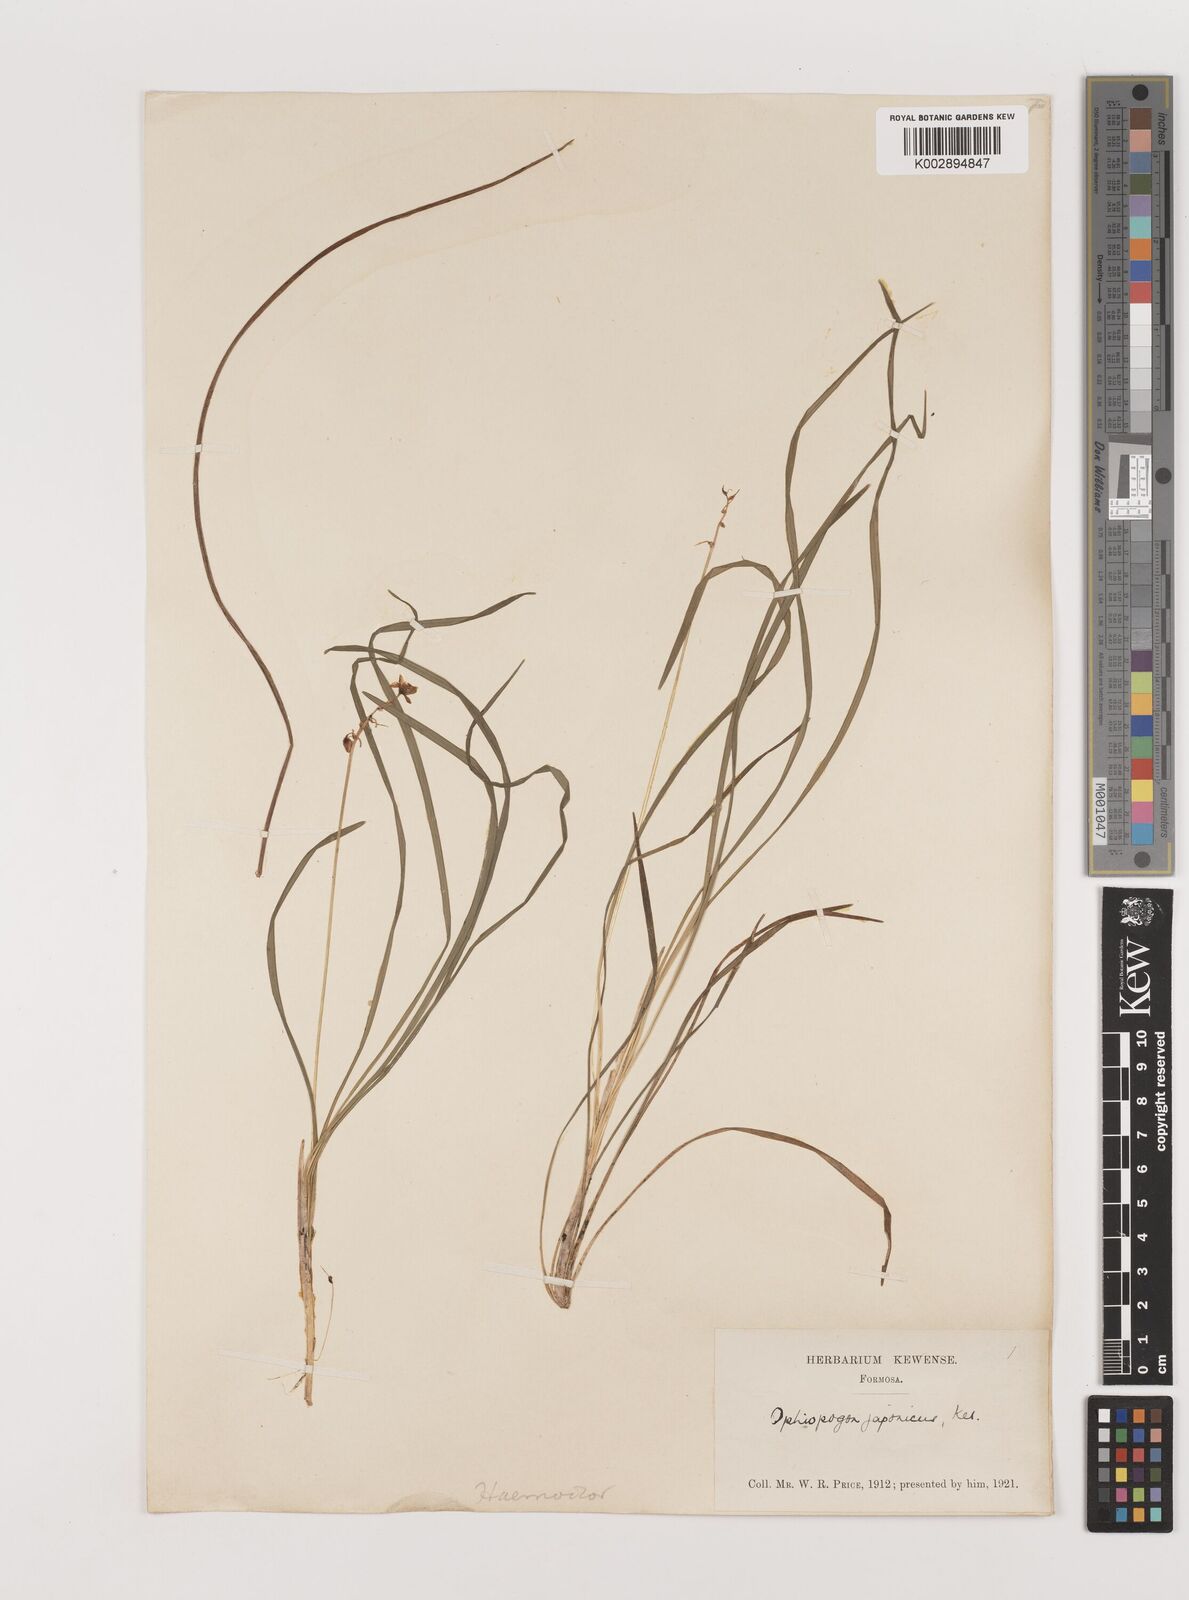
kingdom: Plantae
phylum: Tracheophyta
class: Liliopsida
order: Asparagales
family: Asparagaceae
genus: Ophiopogon
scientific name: Ophiopogon japonicus
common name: Dwarf lilyturf
